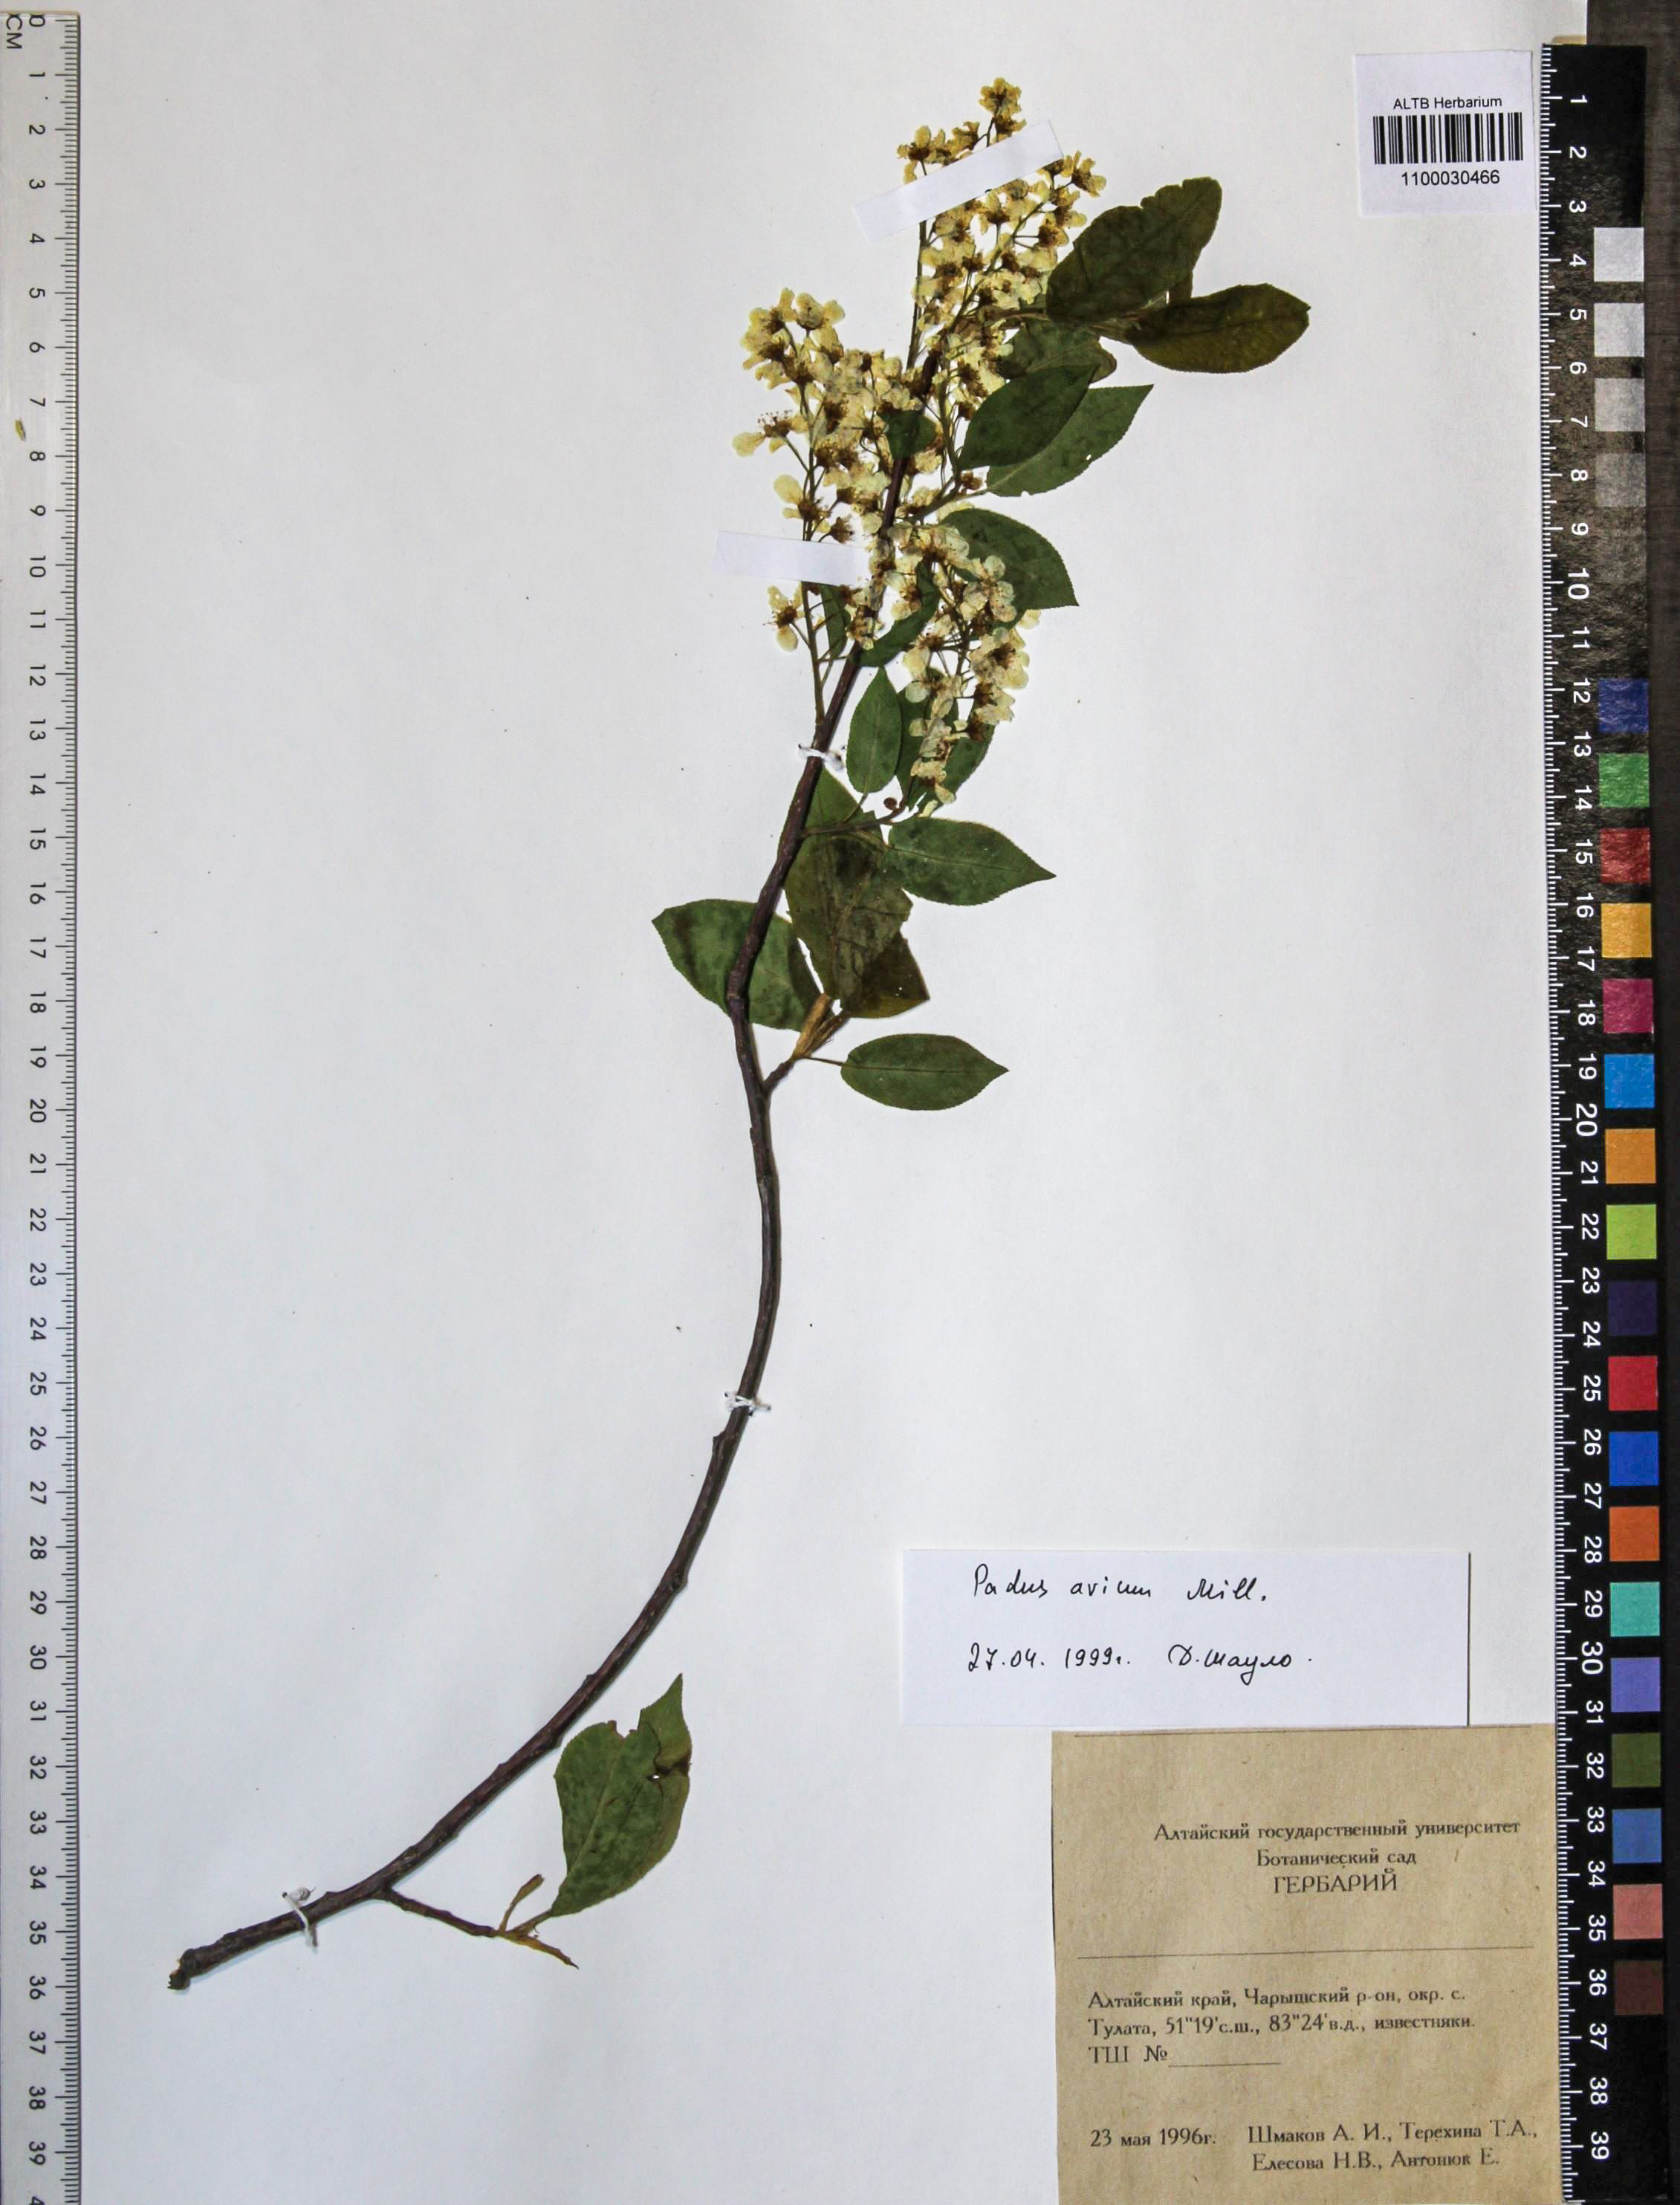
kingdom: Plantae
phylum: Tracheophyta
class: Magnoliopsida
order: Rosales
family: Rosaceae
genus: Prunus
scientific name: Prunus padus
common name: Bird cherry
